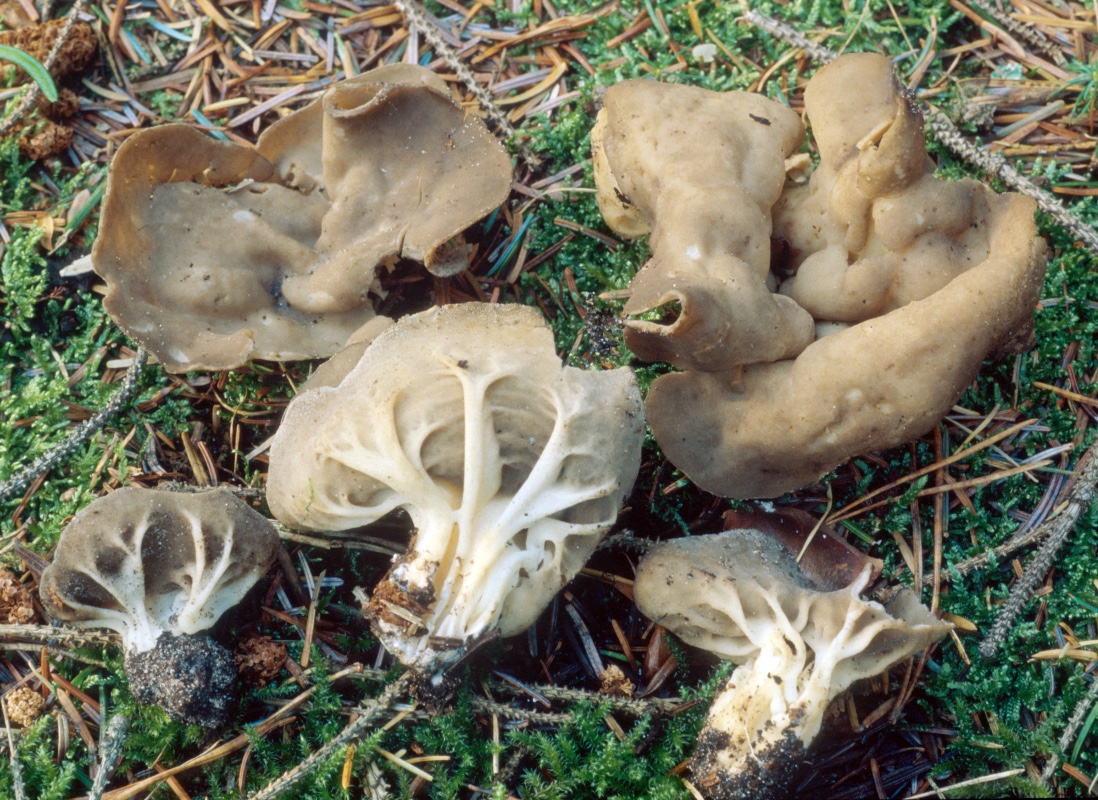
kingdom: Fungi
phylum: Ascomycota
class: Pezizomycetes
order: Pezizales
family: Helvellaceae
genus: Helvella
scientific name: Helvella calycina
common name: ribbet foldhat
